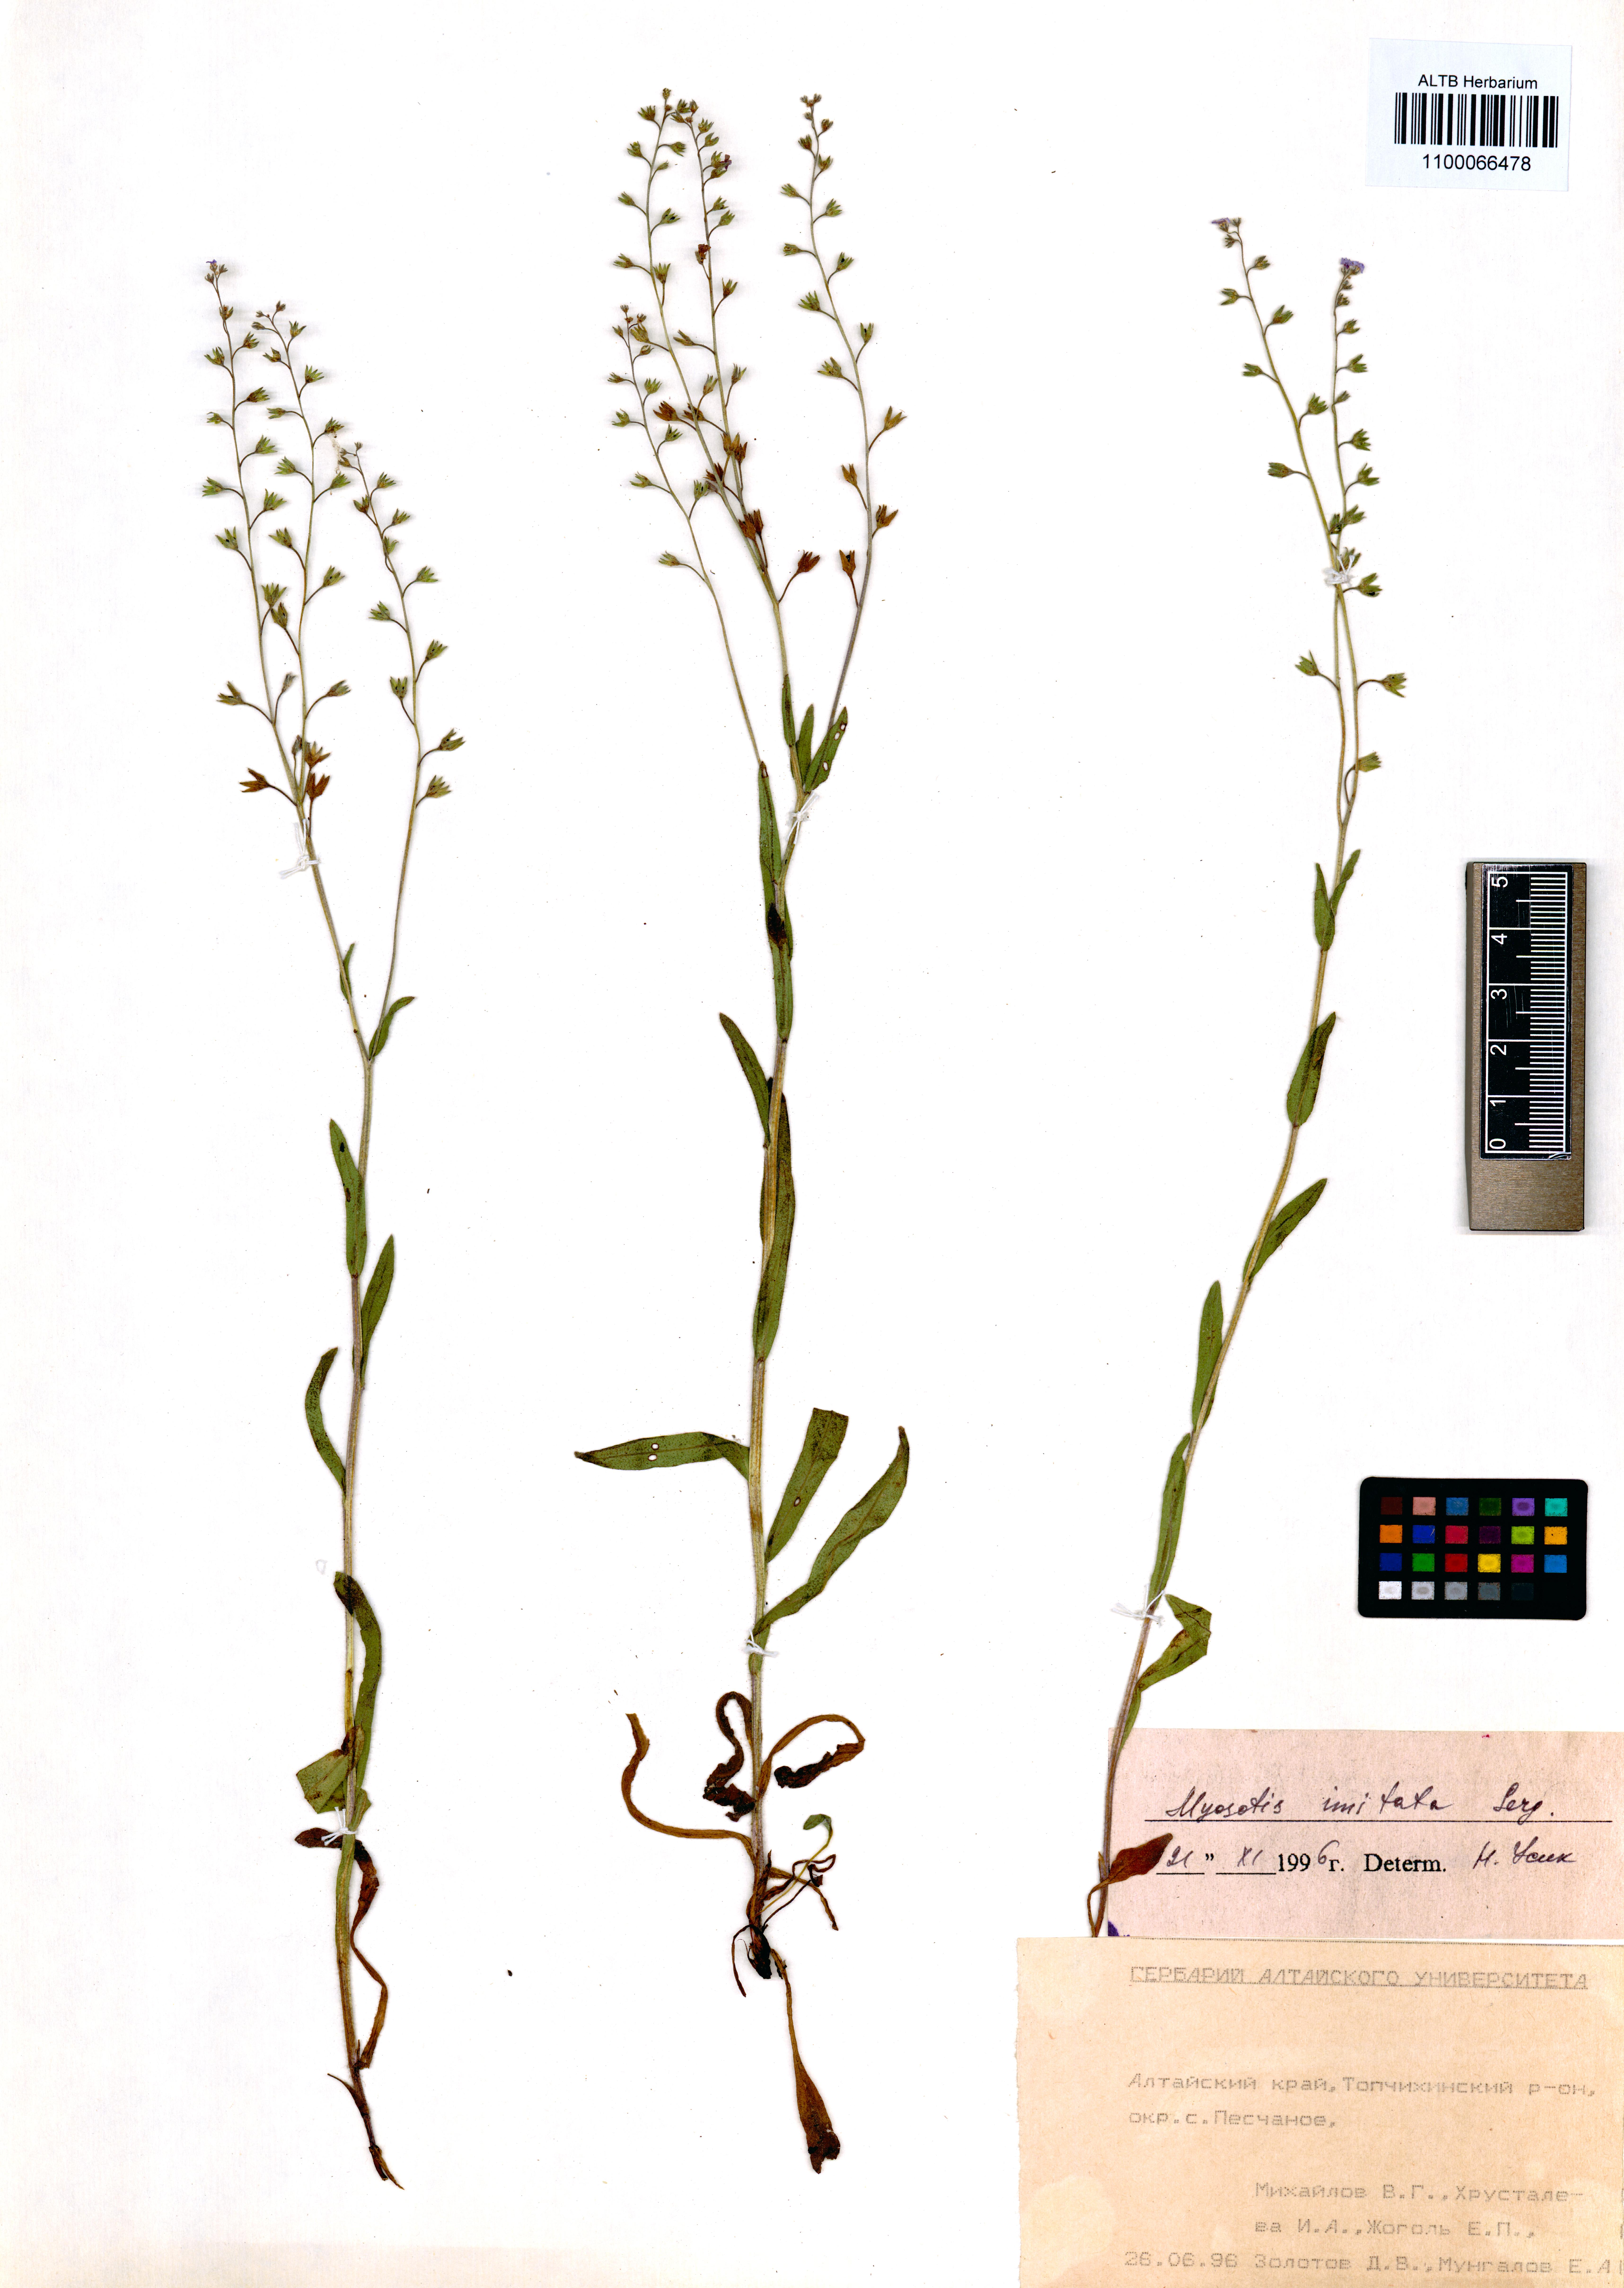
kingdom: Plantae
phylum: Tracheophyta
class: Magnoliopsida
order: Boraginales
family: Boraginaceae
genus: Myosotis
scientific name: Myosotis imitata
